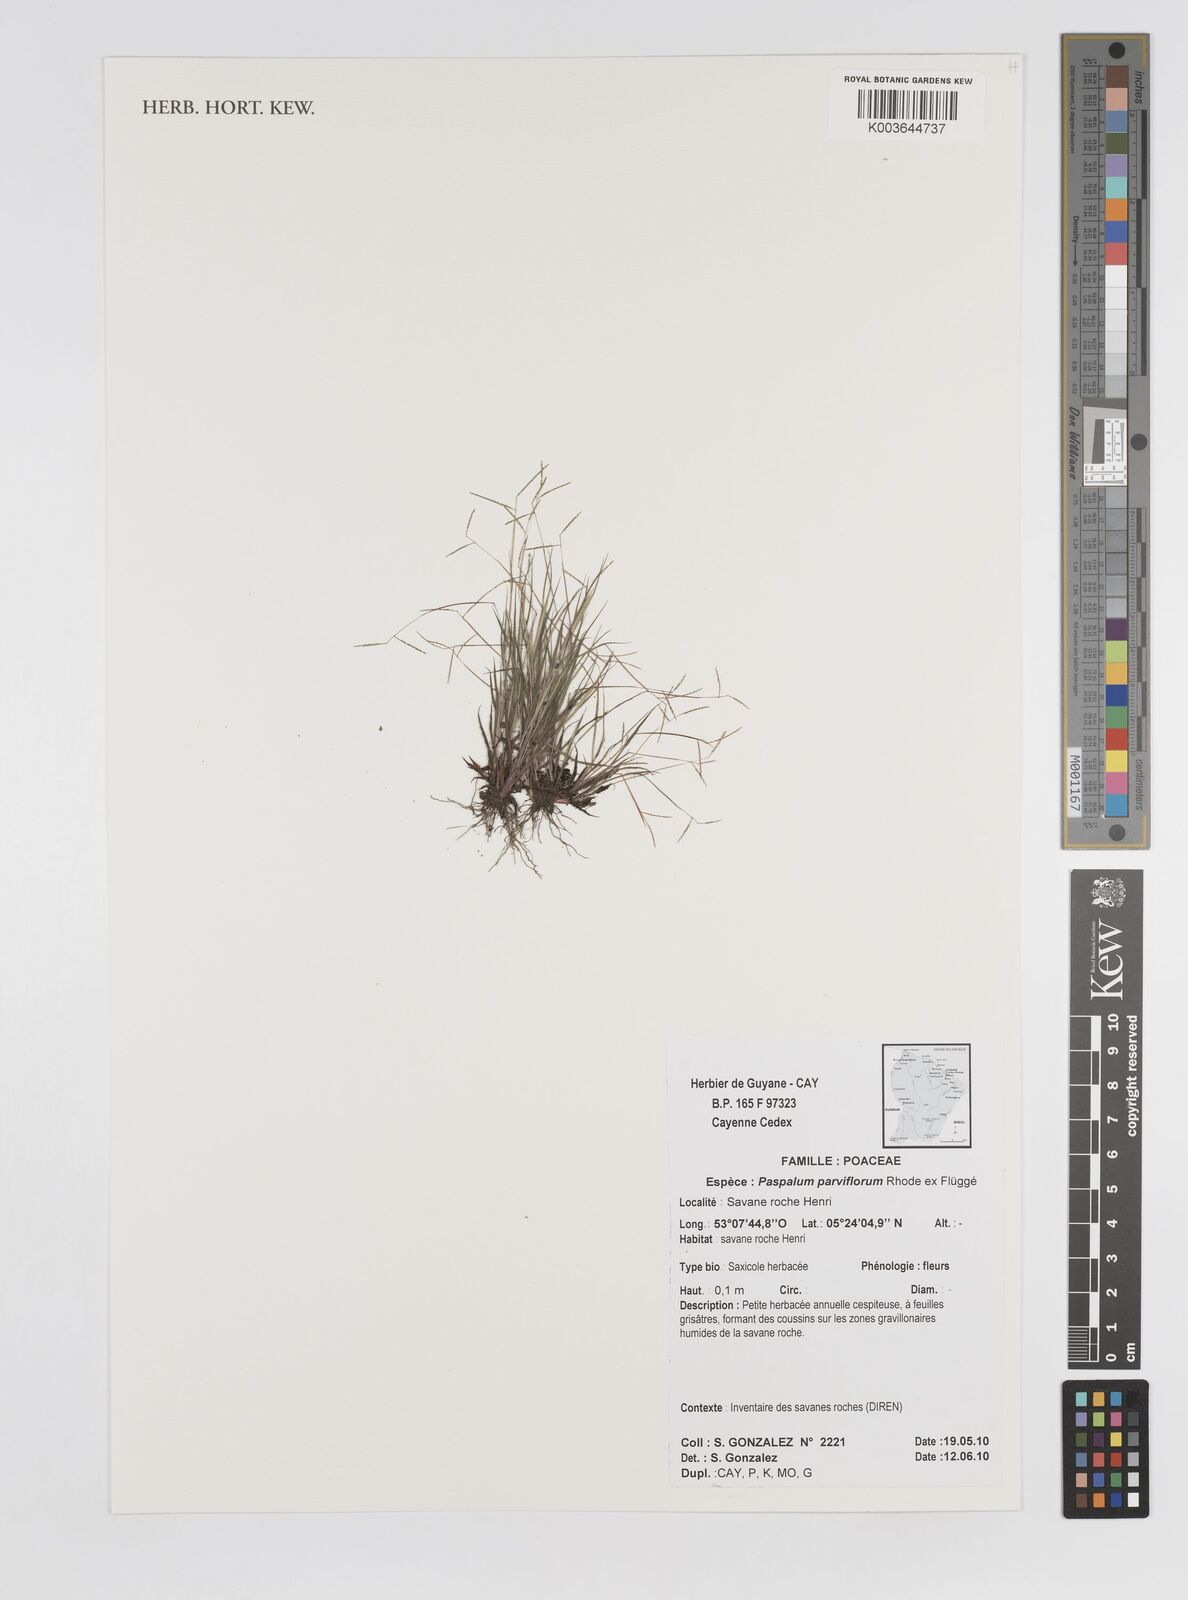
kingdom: Plantae
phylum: Tracheophyta
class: Liliopsida
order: Poales
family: Poaceae
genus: Paspalum
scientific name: Paspalum parviflorum
